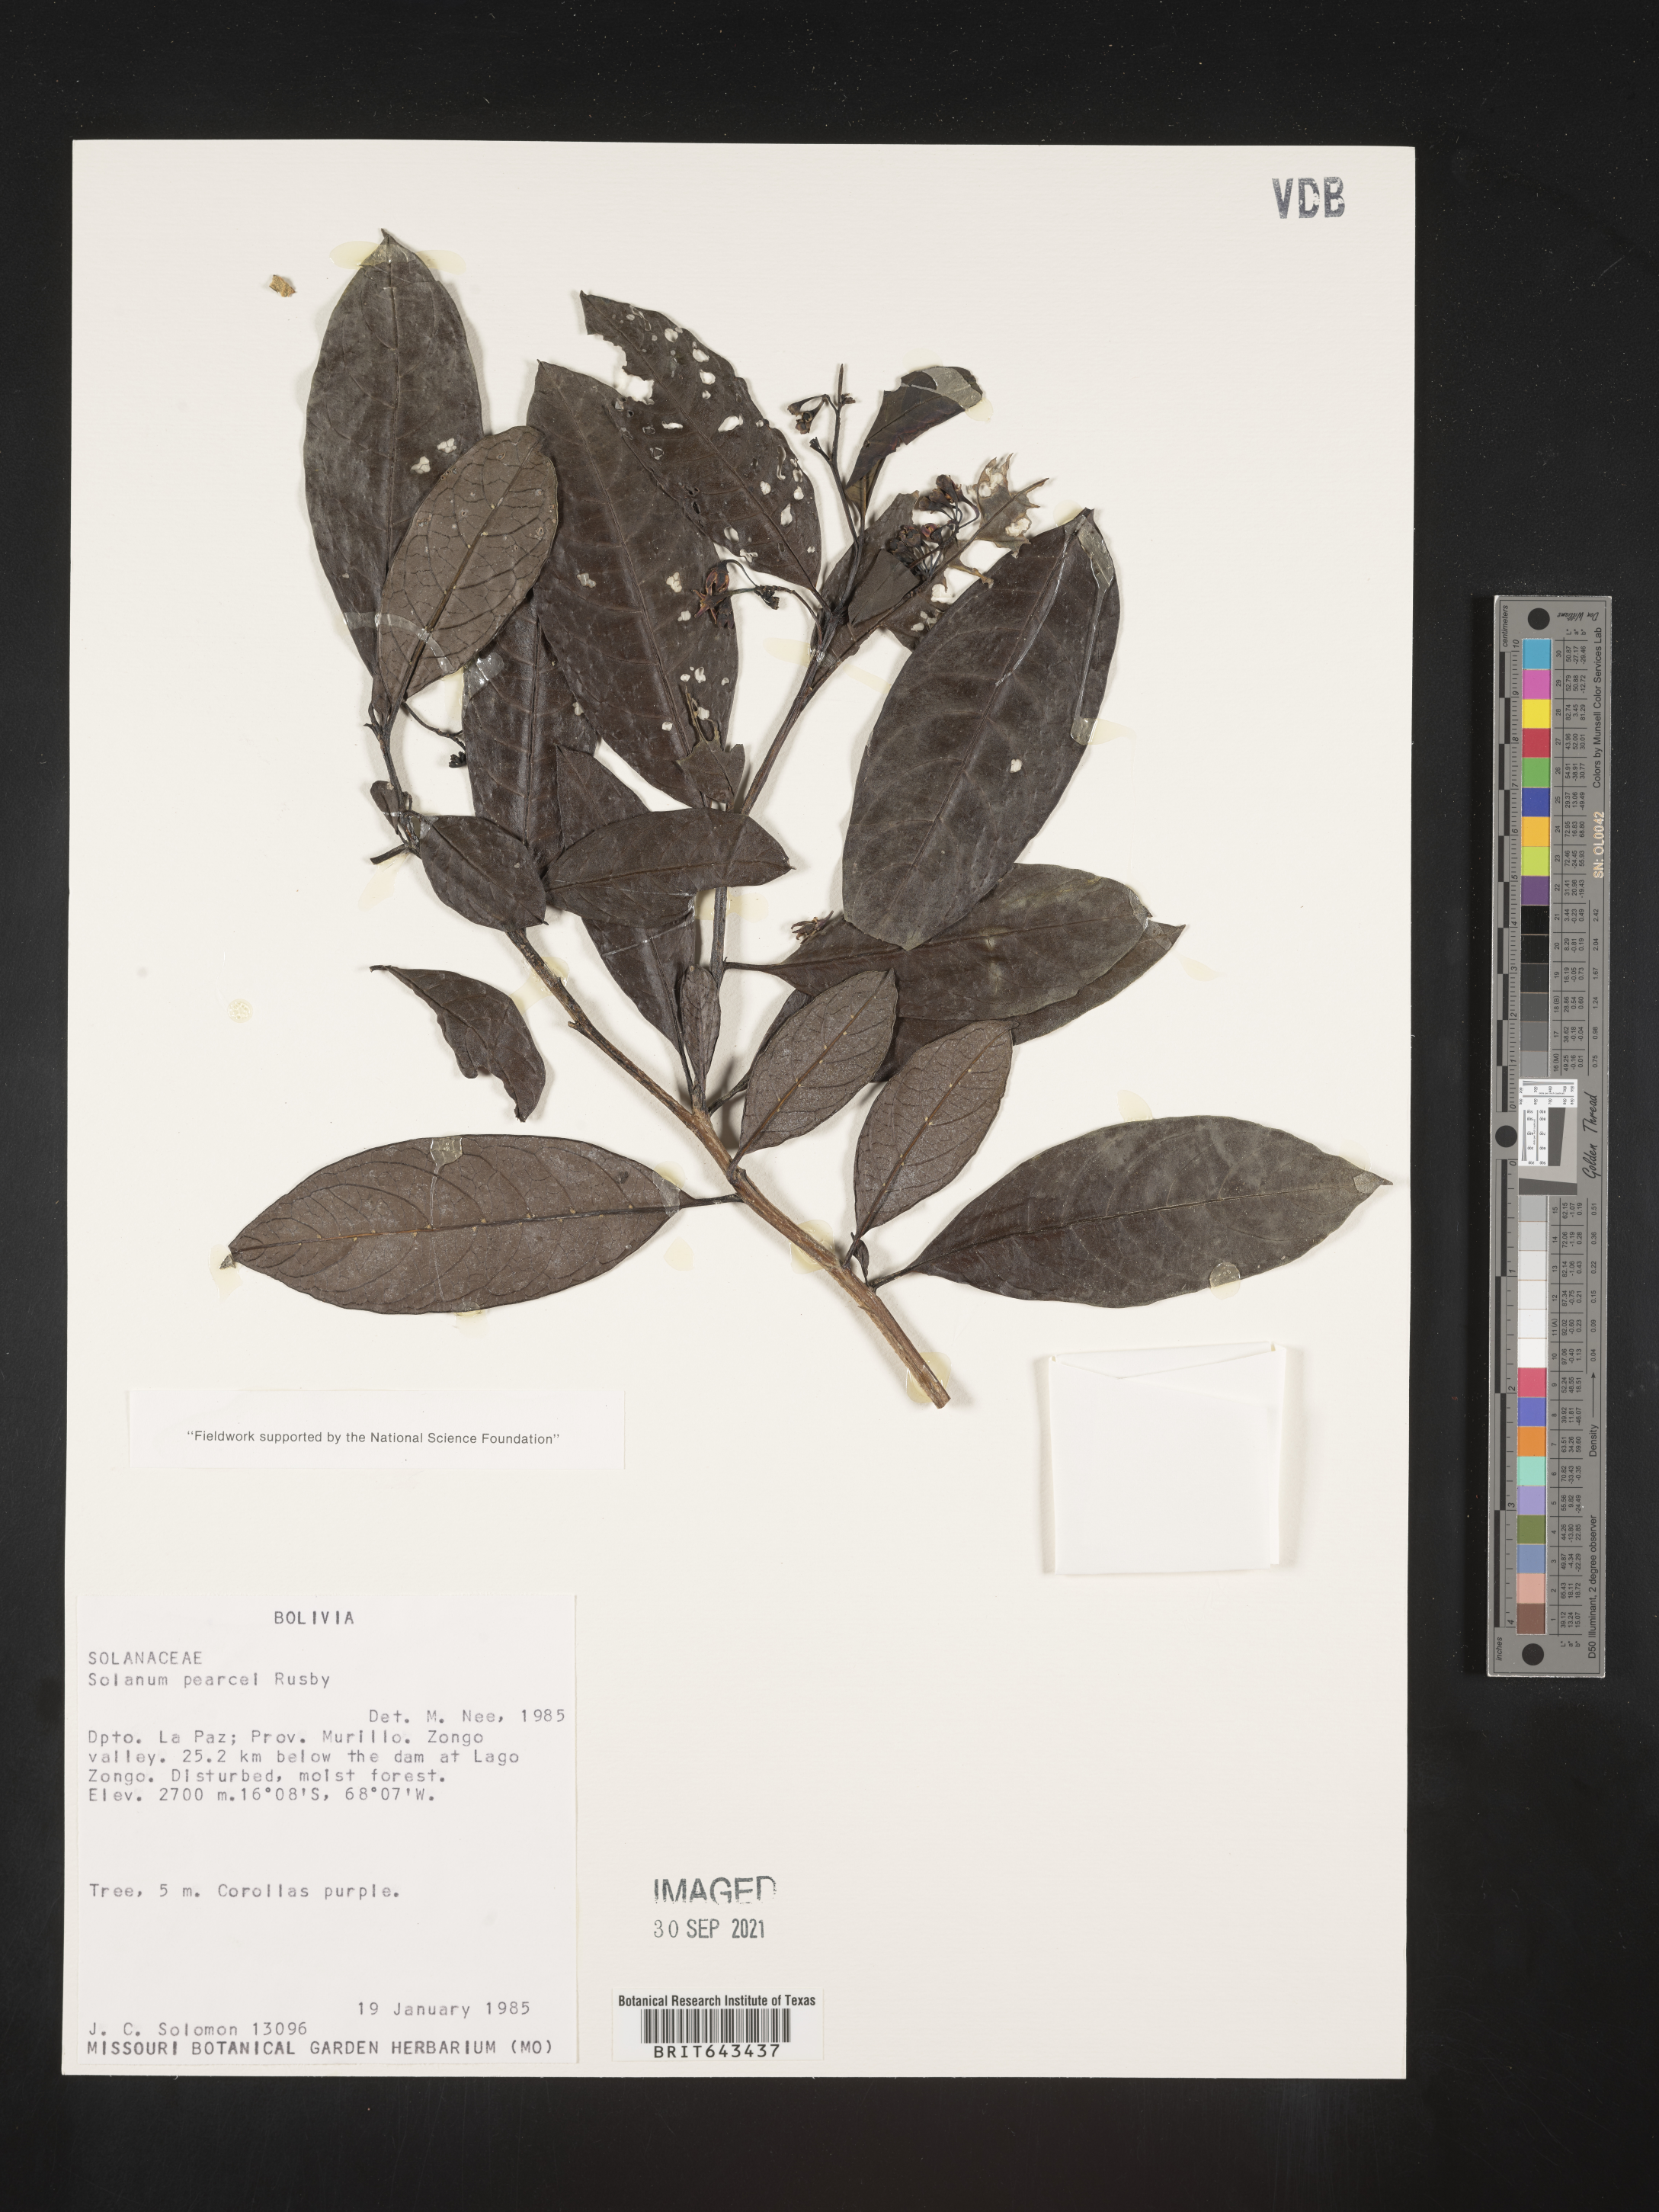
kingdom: Plantae
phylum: Tracheophyta
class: Magnoliopsida
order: Solanales
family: Solanaceae
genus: Solanum
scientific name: Solanum
